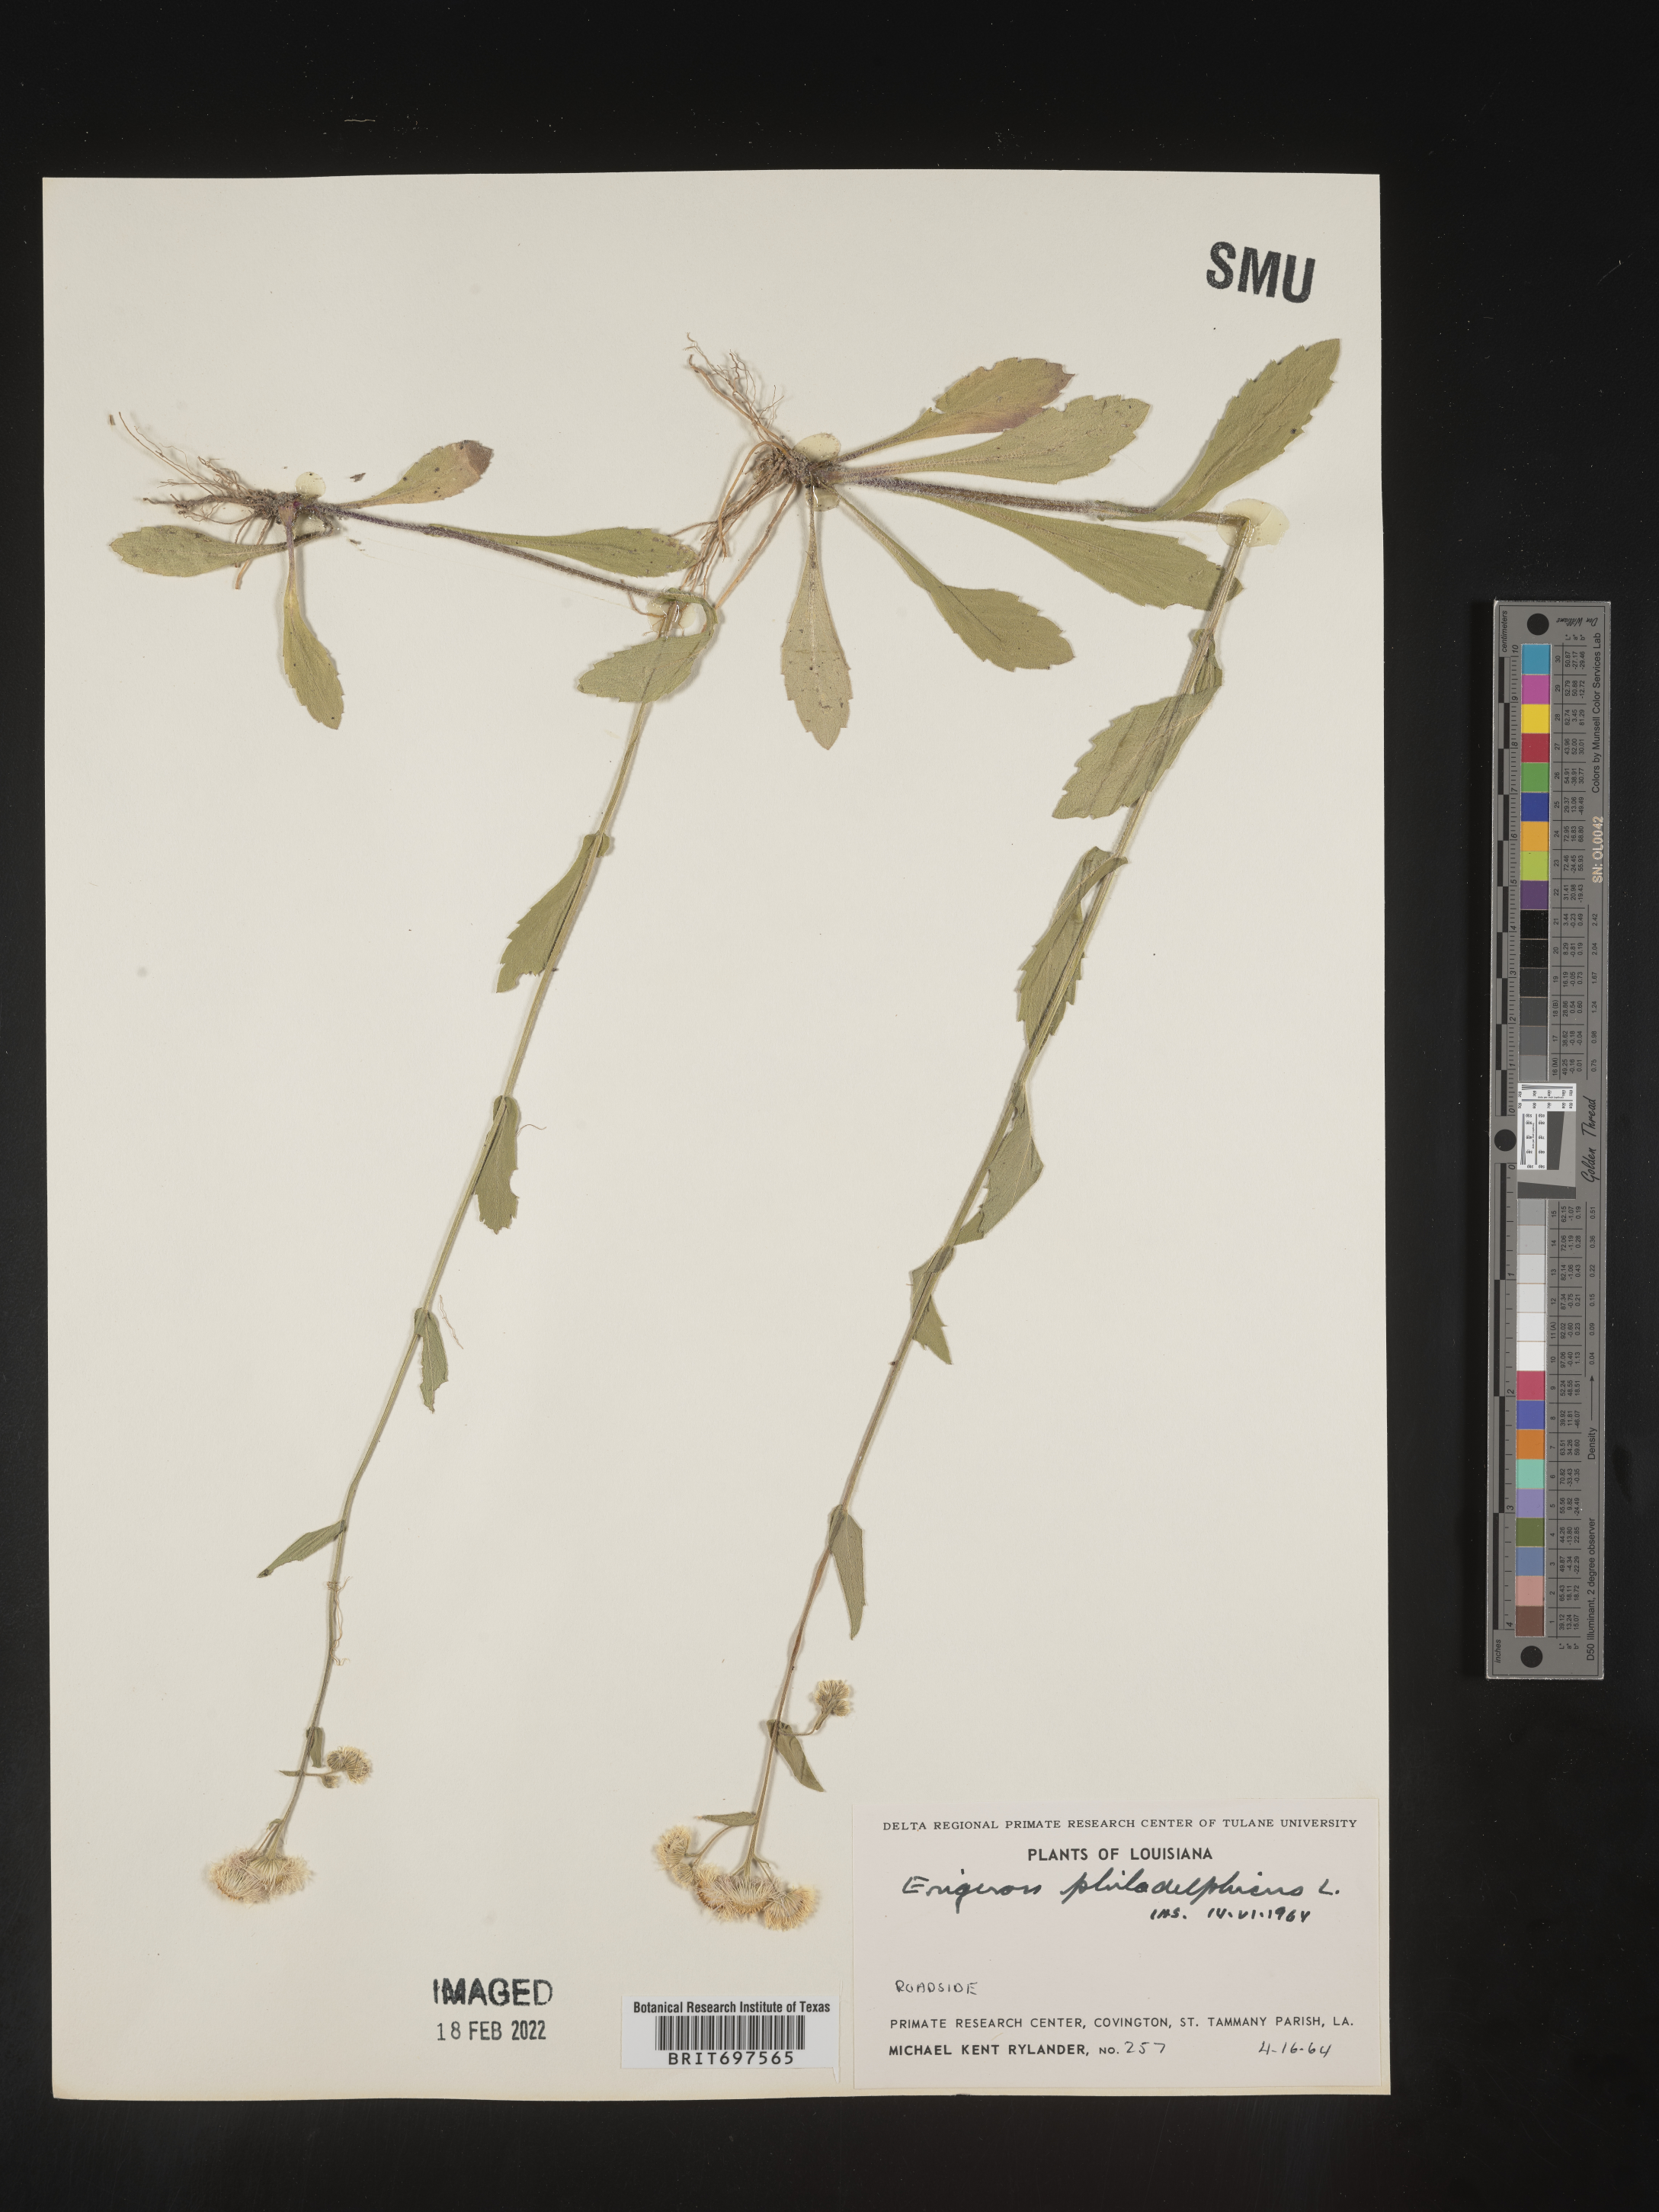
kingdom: Plantae
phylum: Tracheophyta
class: Magnoliopsida
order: Asterales
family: Asteraceae
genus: Erigeron
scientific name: Erigeron philadelphicus
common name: Robin's-plantain
